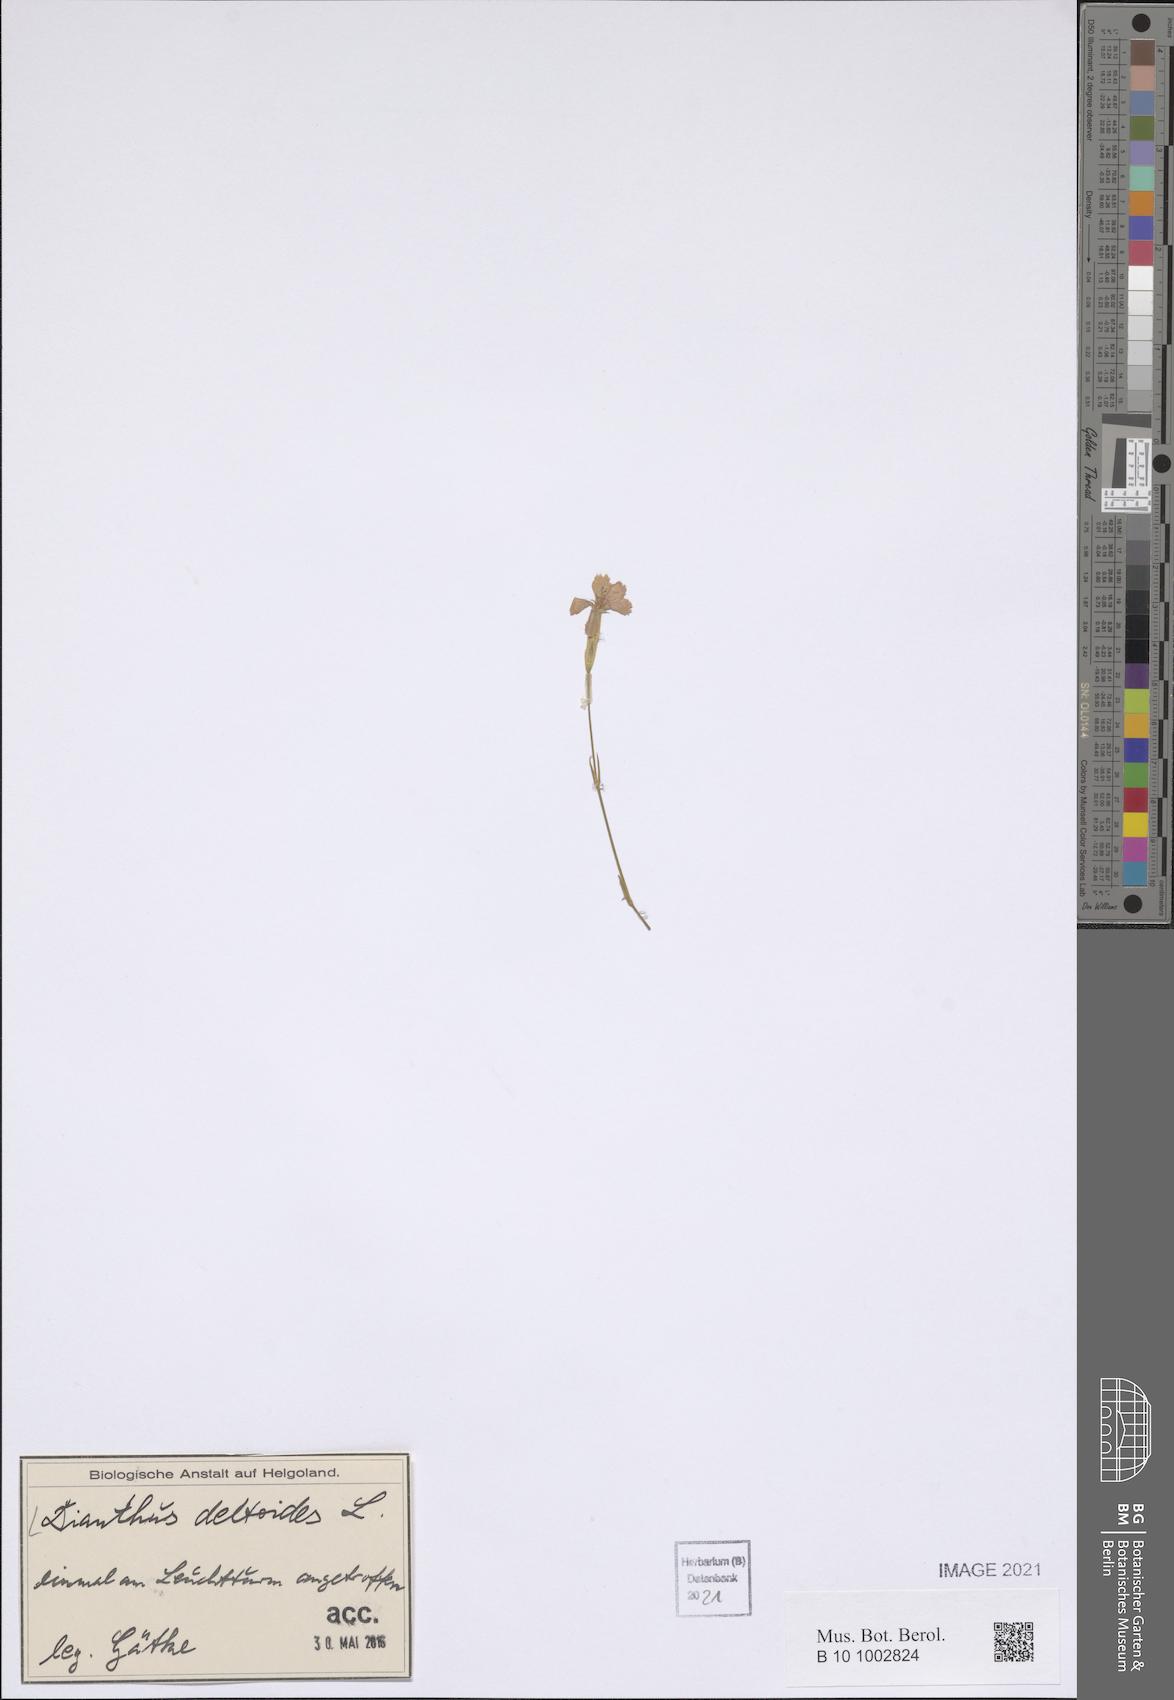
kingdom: Plantae
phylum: Tracheophyta
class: Magnoliopsida
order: Caryophyllales
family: Caryophyllaceae
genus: Dianthus
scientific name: Dianthus deltoides
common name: Maiden pink
